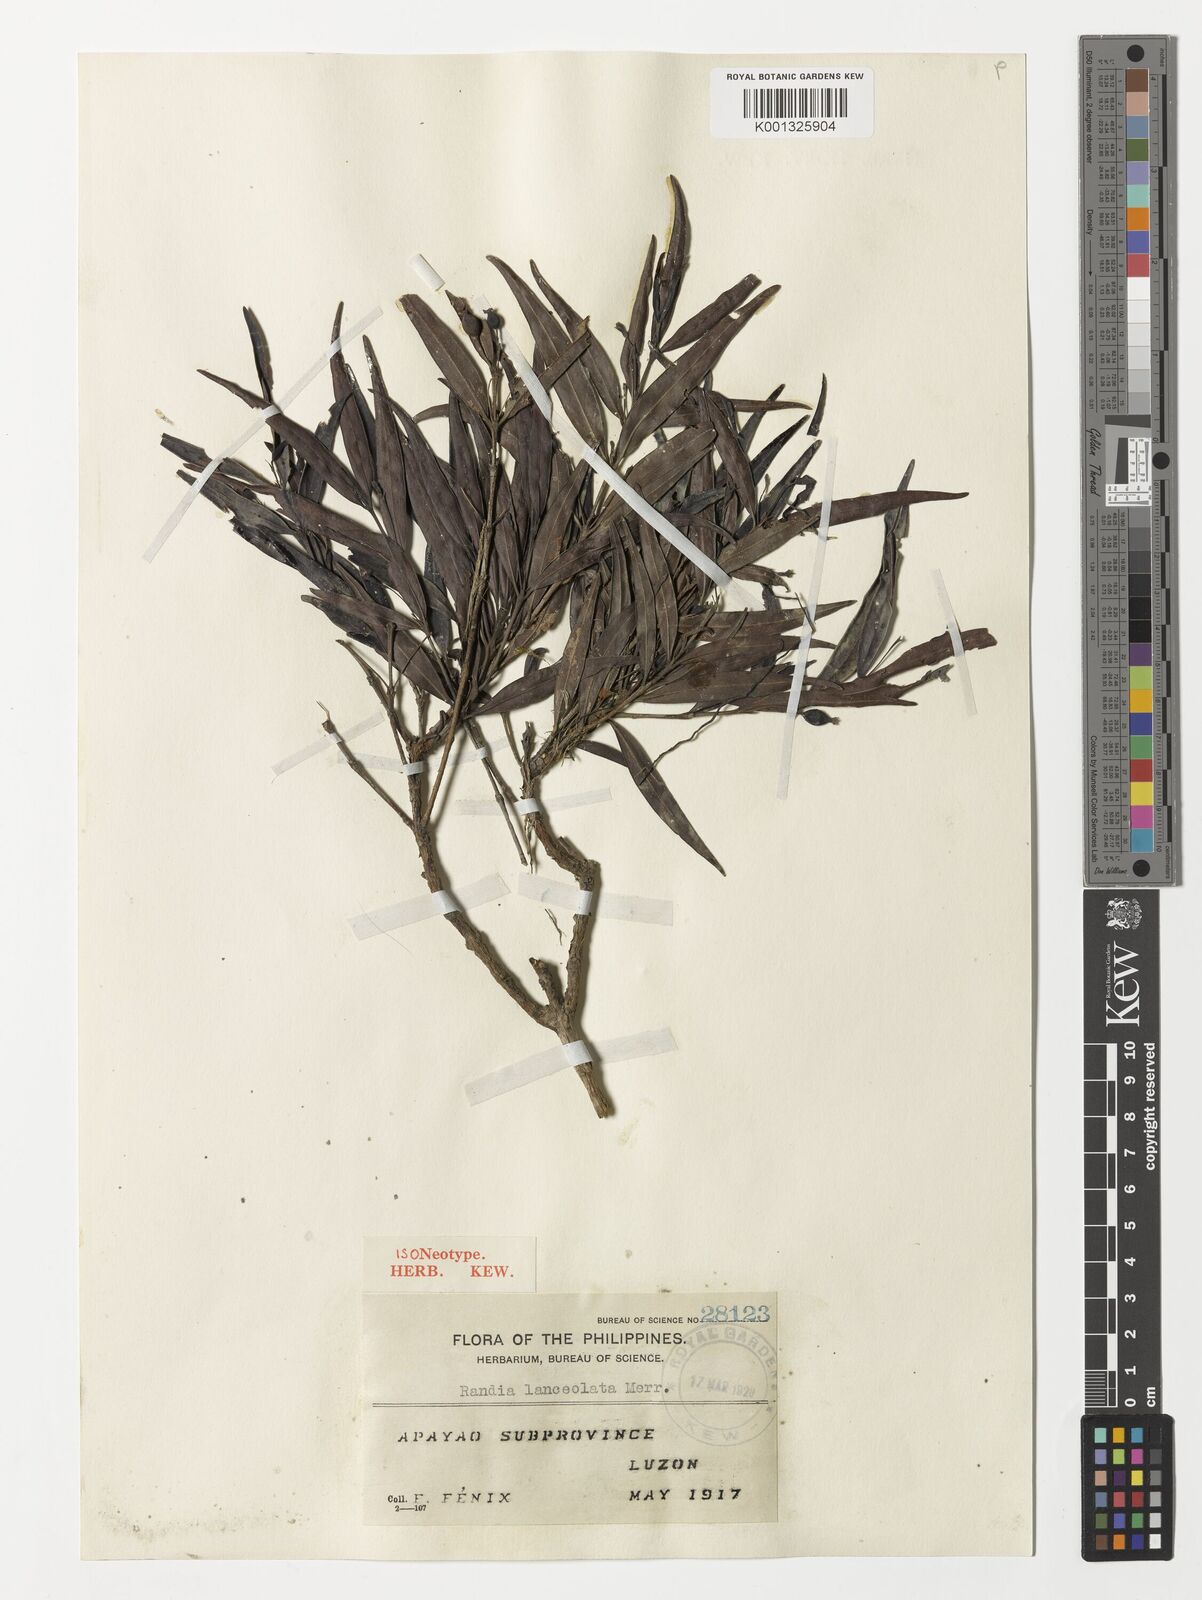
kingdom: Plantae
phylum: Tracheophyta
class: Magnoliopsida
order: Gentianales
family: Rubiaceae
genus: Villaria
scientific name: Villaria lanceolata
